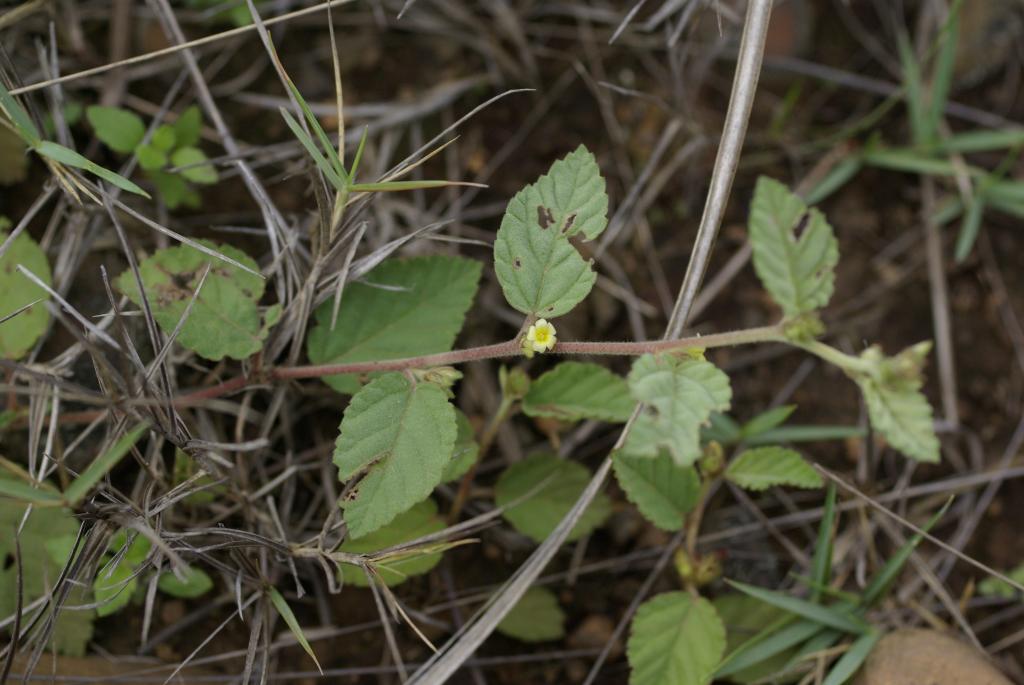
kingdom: Plantae
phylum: Tracheophyta
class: Magnoliopsida
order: Malvales
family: Malvaceae
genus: Waltheria
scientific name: Waltheria indica
